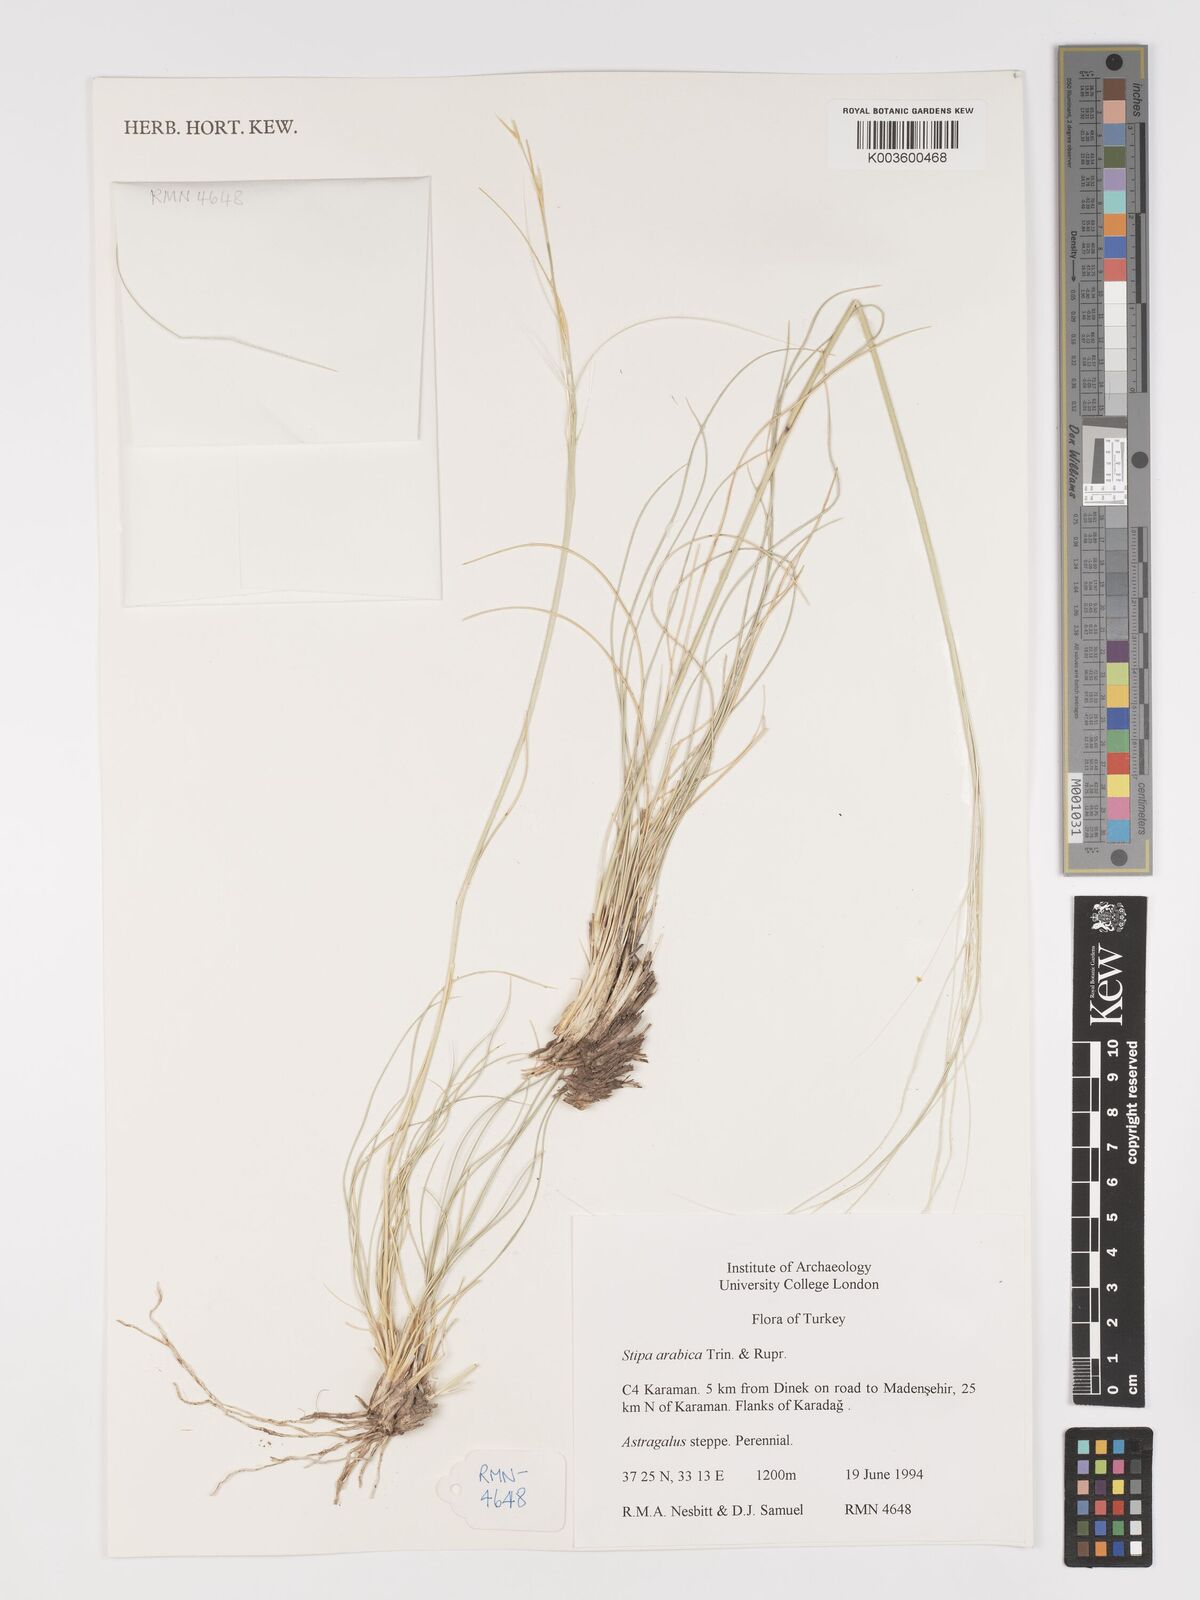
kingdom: Plantae
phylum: Tracheophyta
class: Liliopsida
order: Poales
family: Poaceae
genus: Stipa
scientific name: Stipa arabica
